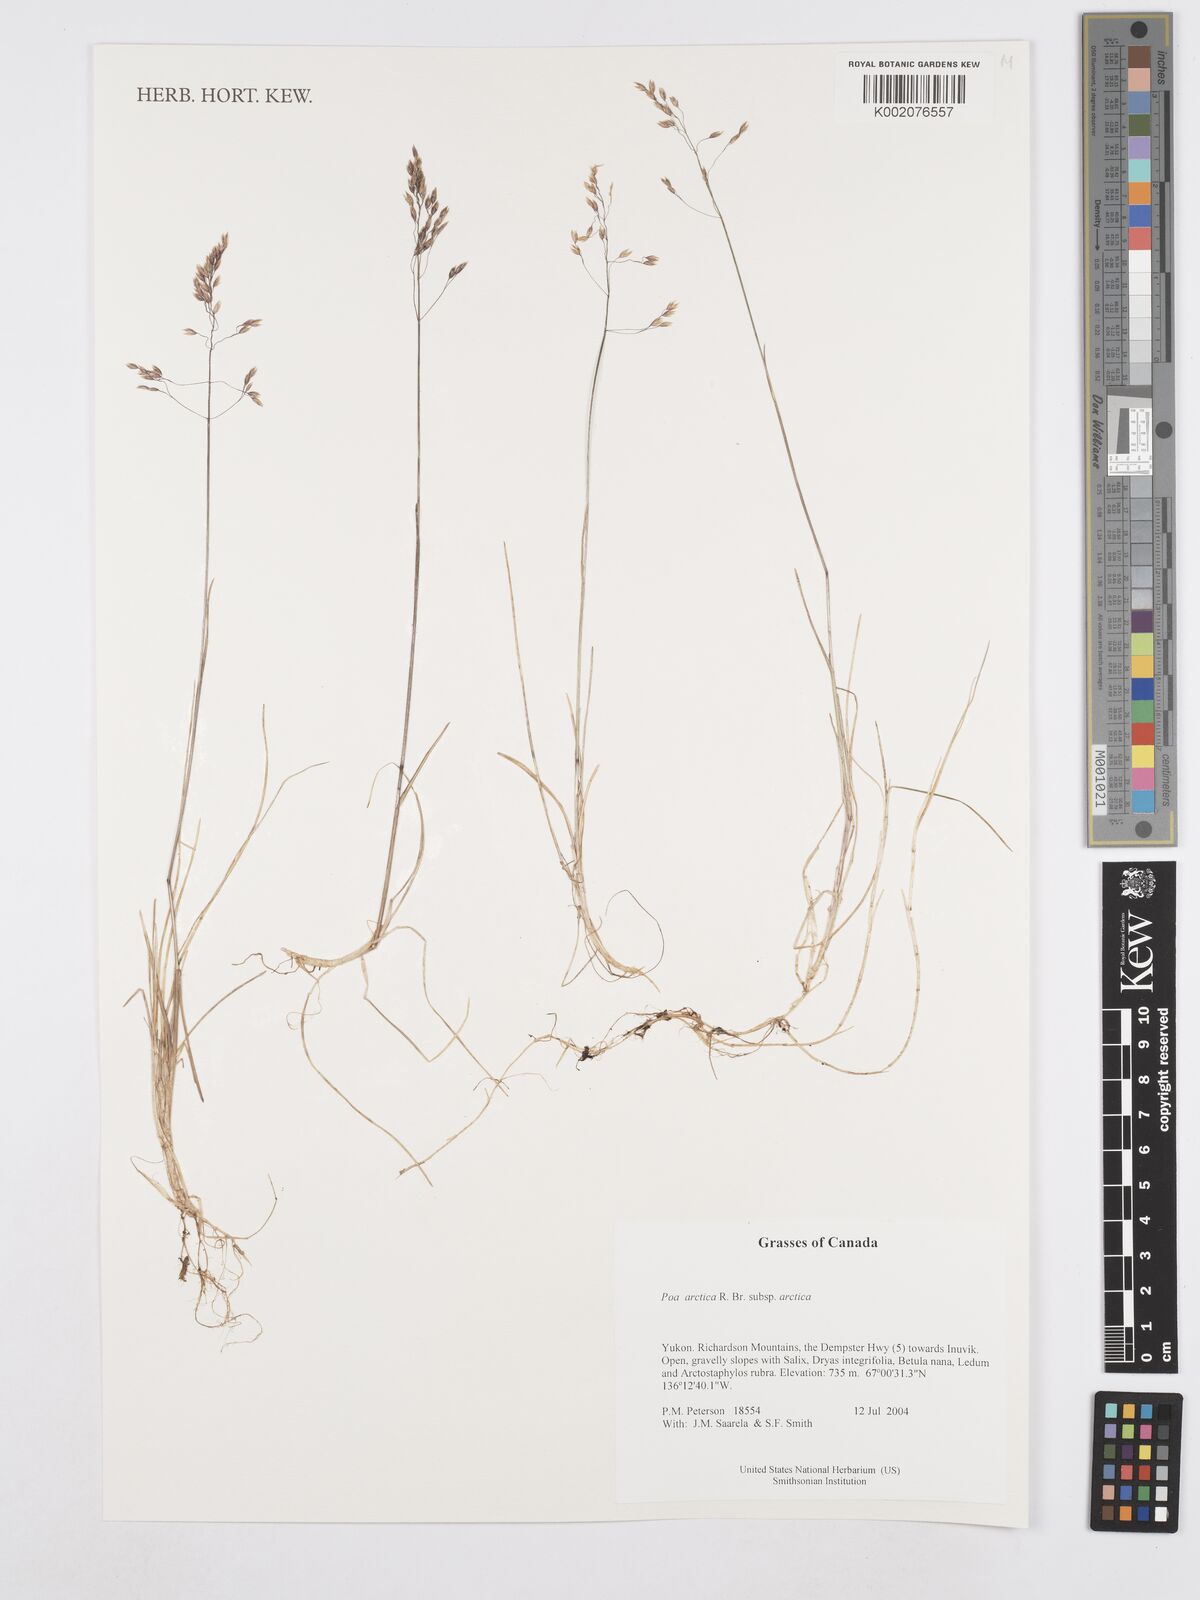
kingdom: Plantae
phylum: Tracheophyta
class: Liliopsida
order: Poales
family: Poaceae
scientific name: Poaceae
